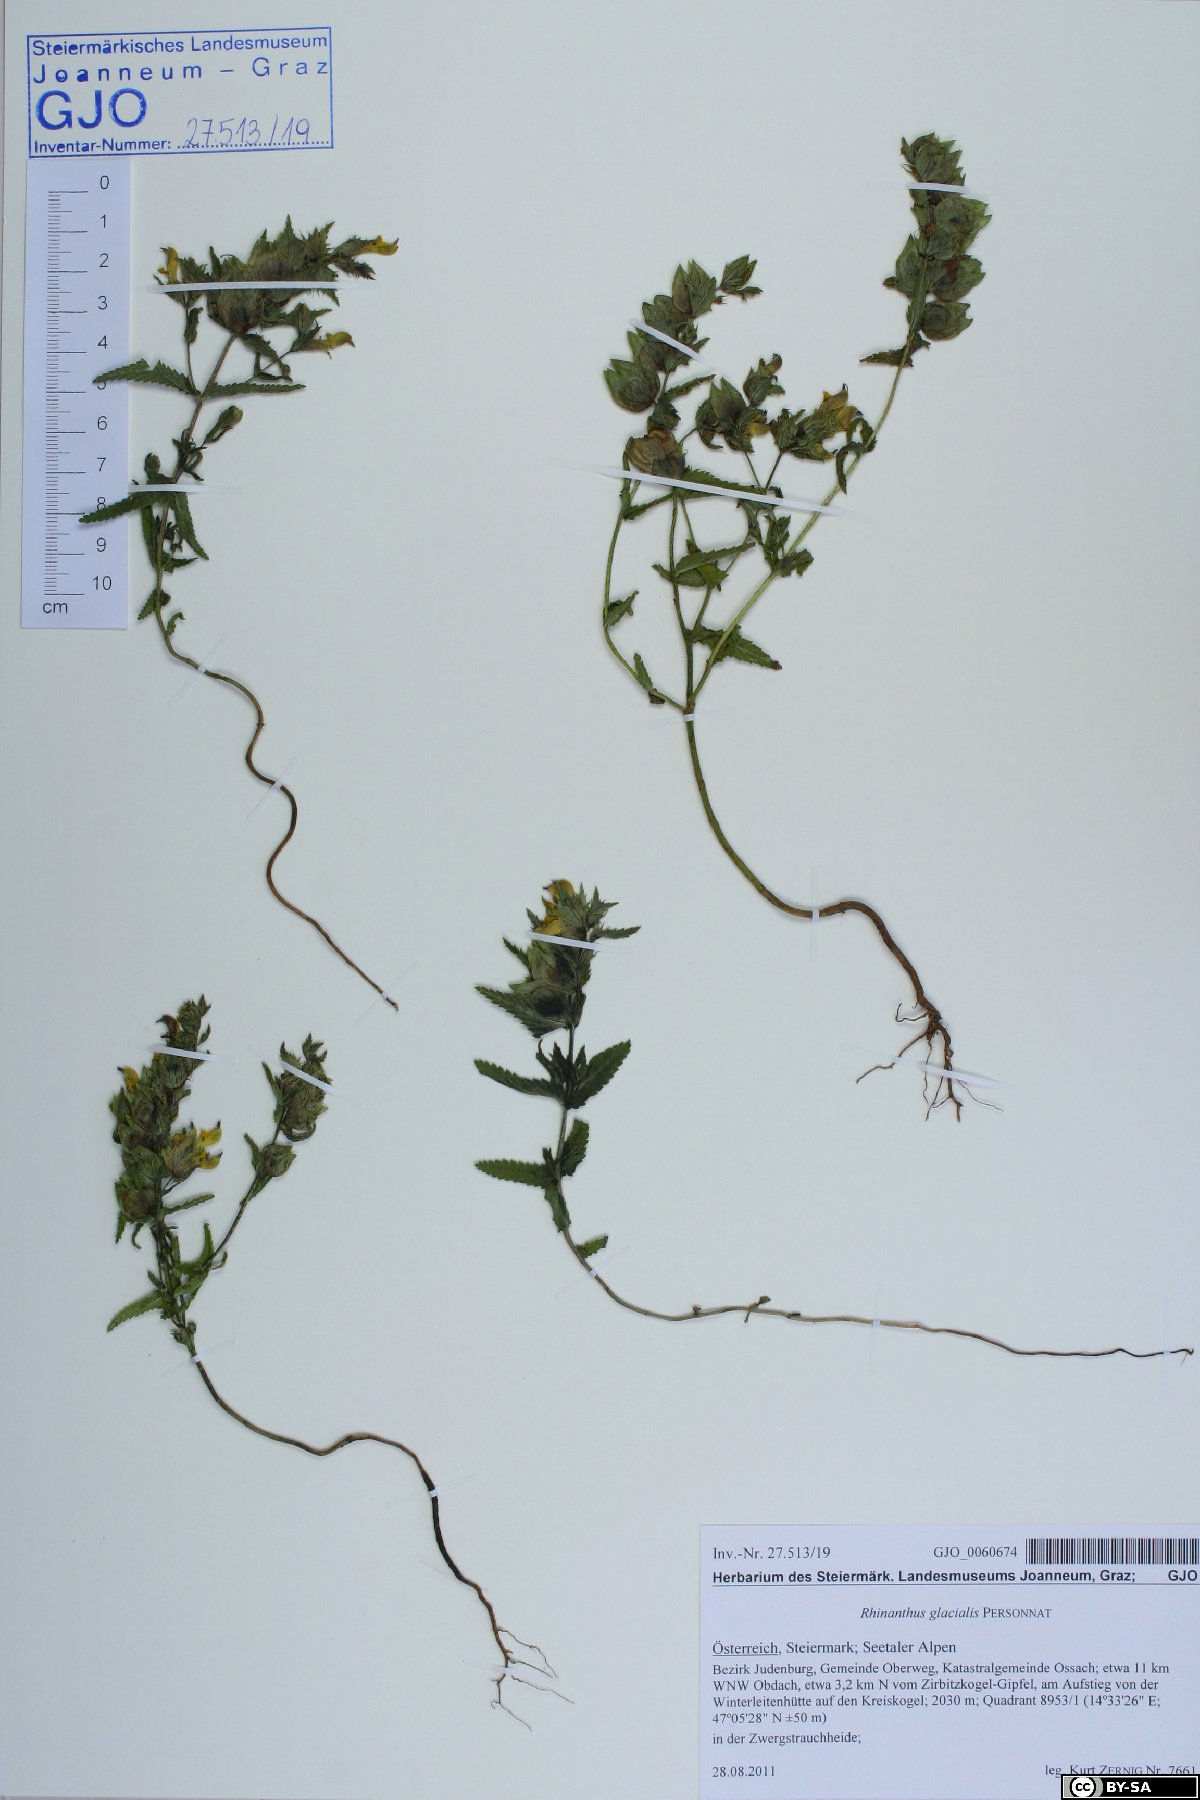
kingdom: Plantae
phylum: Tracheophyta
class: Magnoliopsida
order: Lamiales
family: Orobanchaceae
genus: Rhinanthus
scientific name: Rhinanthus glacialis
